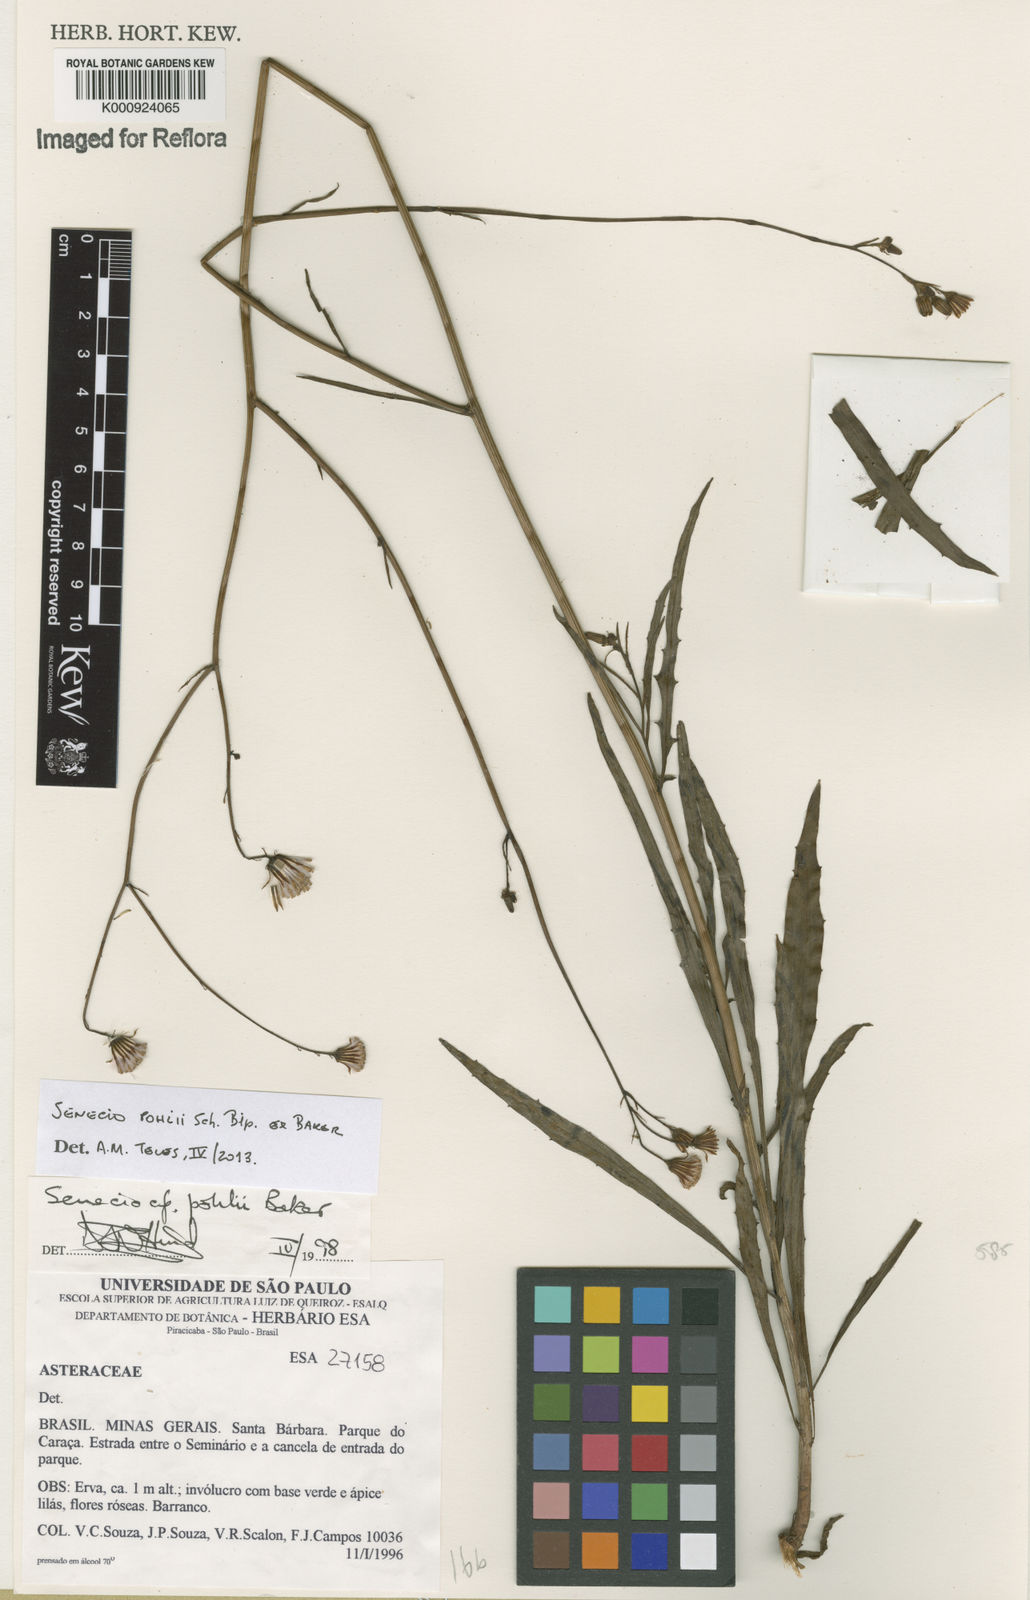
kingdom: Plantae
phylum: Tracheophyta
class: Magnoliopsida
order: Asterales
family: Asteraceae
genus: Pseudogynoxys
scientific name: Pseudogynoxys pohlii
